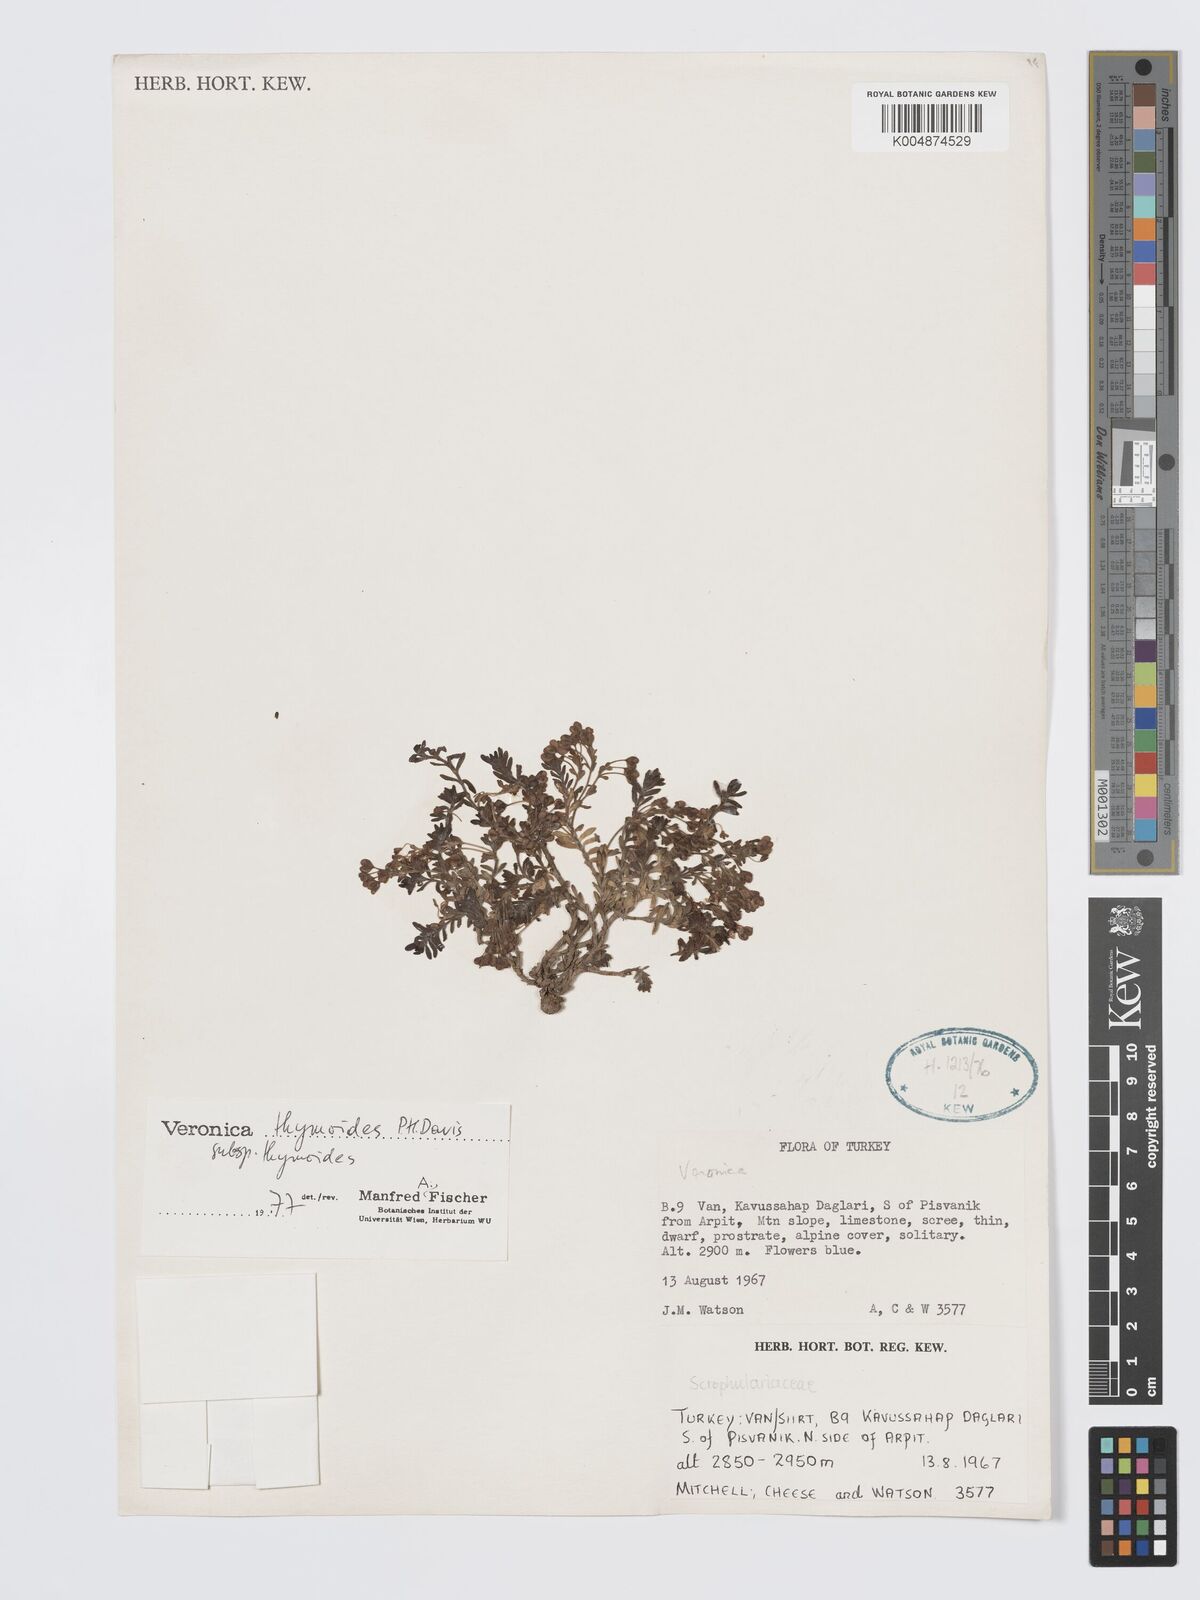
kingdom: Plantae
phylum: Tracheophyta
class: Magnoliopsida
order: Lamiales
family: Plantaginaceae
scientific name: Plantaginaceae
